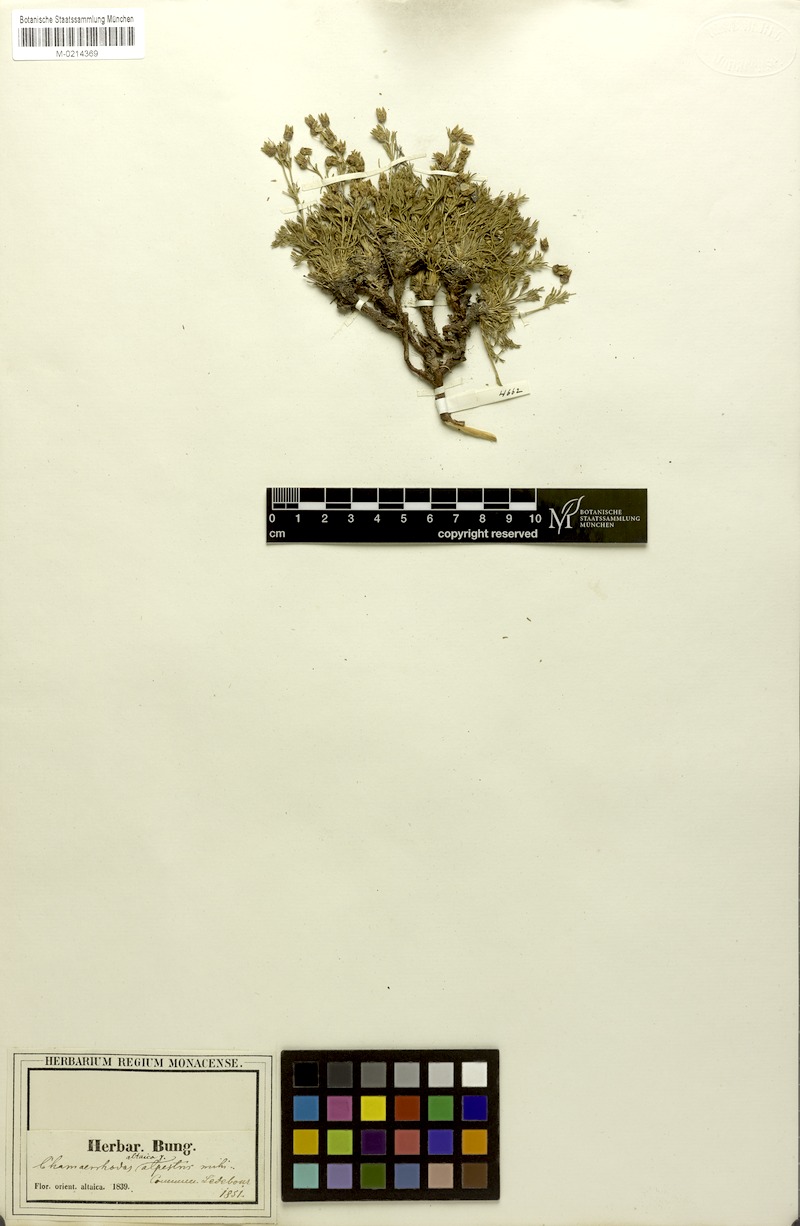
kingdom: Plantae
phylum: Tracheophyta
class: Magnoliopsida
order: Rosales
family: Rosaceae
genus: Chamaerhodos
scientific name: Chamaerhodos altaica
